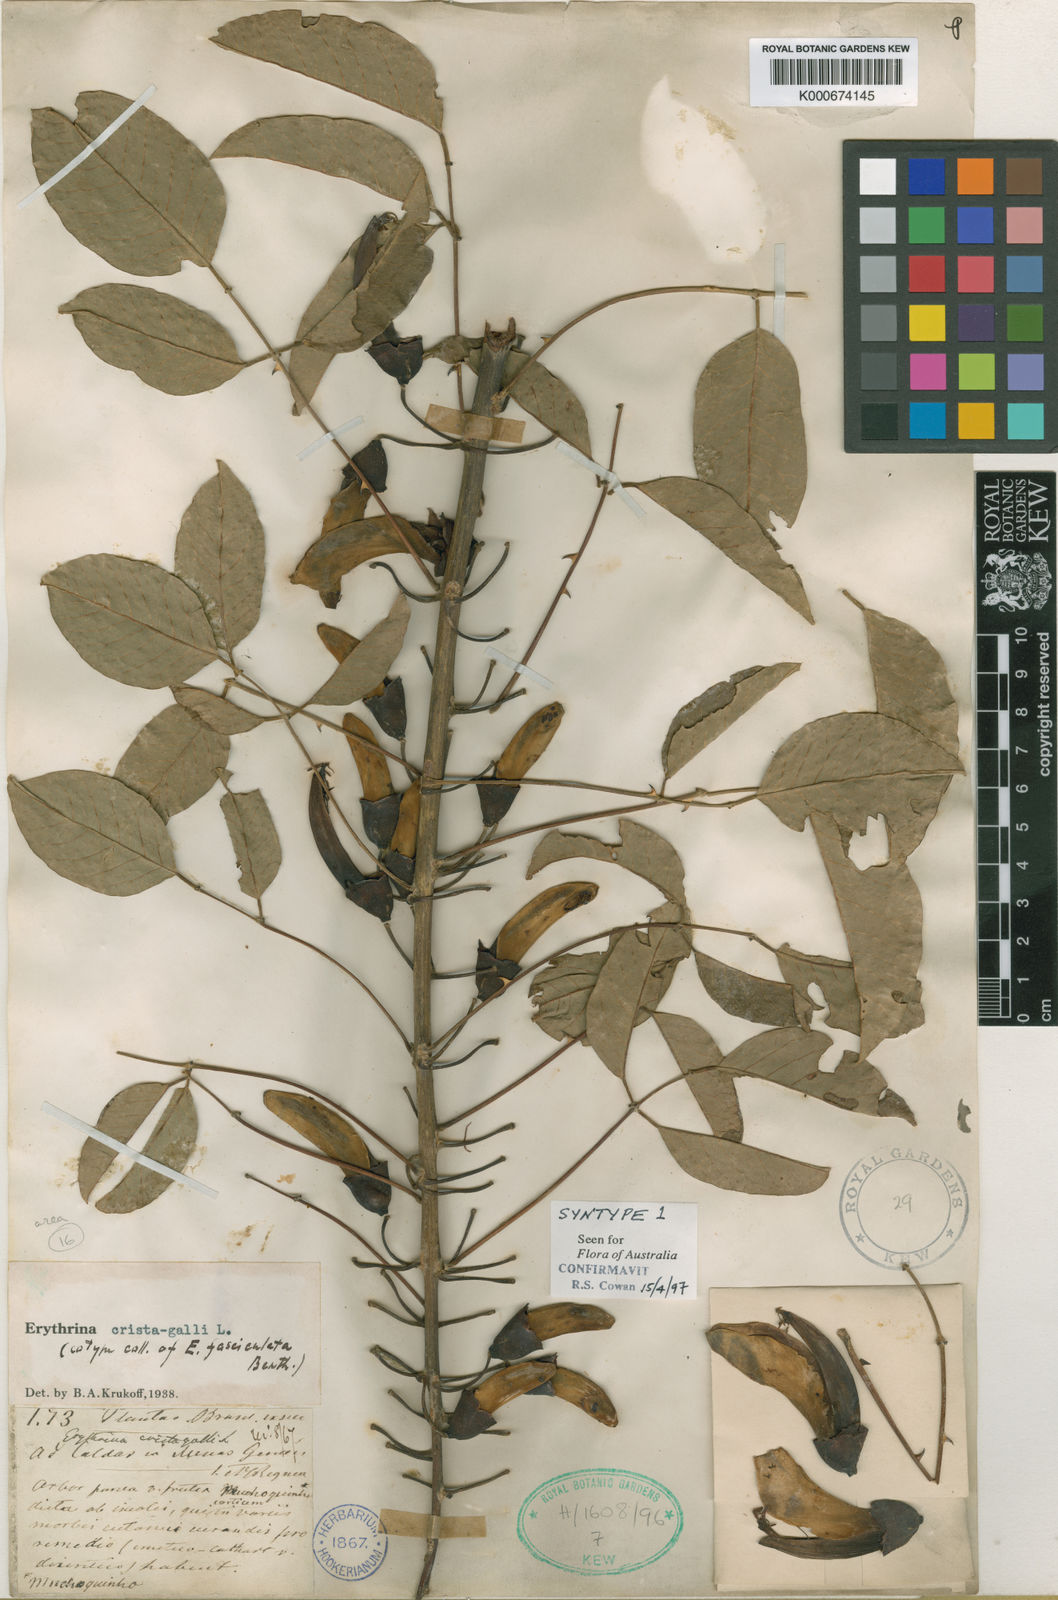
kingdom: Plantae
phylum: Tracheophyta
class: Magnoliopsida
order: Fabales
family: Fabaceae
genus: Erythrina
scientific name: Erythrina crista-galli
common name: Cockspur coral tree
